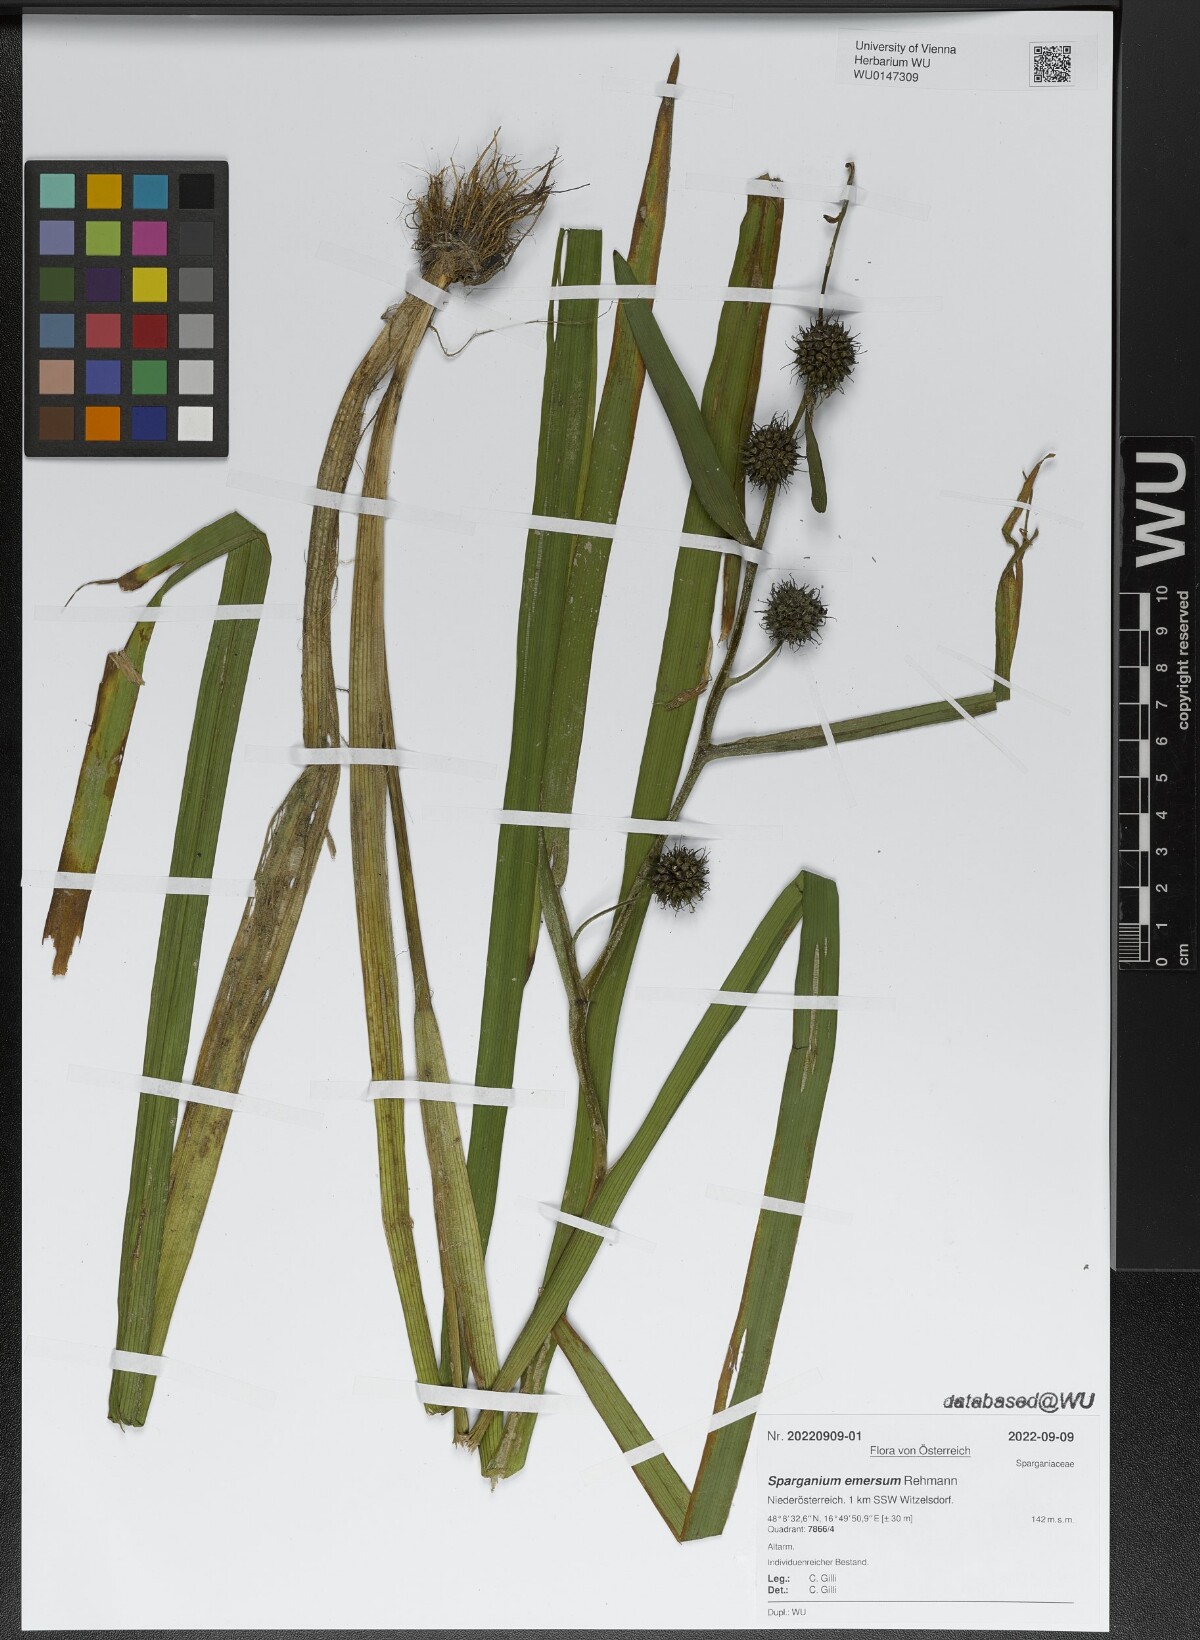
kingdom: Plantae
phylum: Tracheophyta
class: Liliopsida
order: Poales
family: Typhaceae
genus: Sparganium
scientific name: Sparganium emersum
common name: Unbranched bur-reed
